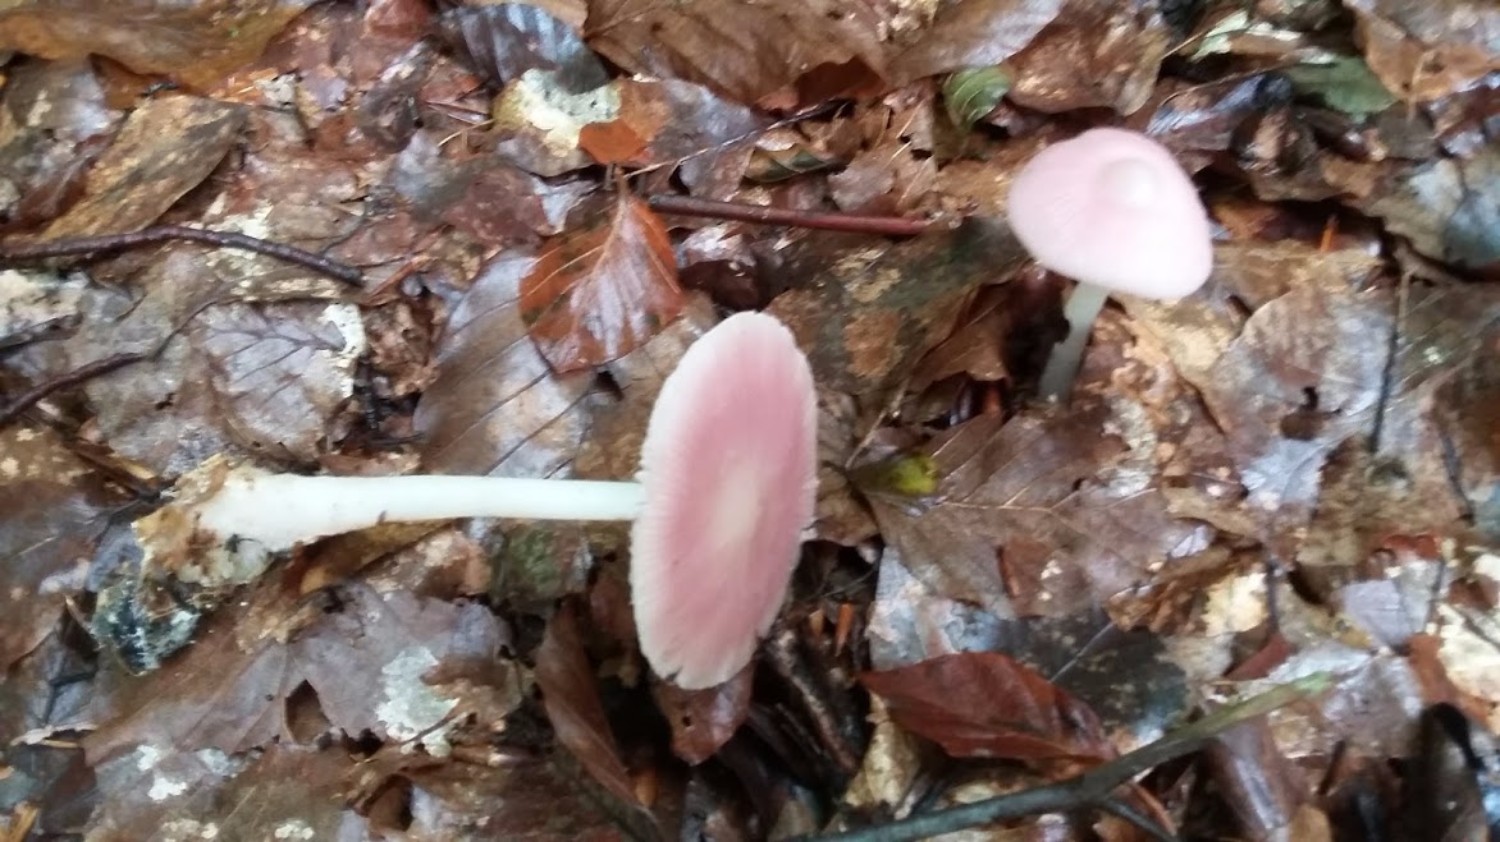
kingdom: Fungi
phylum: Basidiomycota
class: Agaricomycetes
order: Agaricales
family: Mycenaceae
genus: Mycena
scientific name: Mycena rosea
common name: rosa huesvamp
